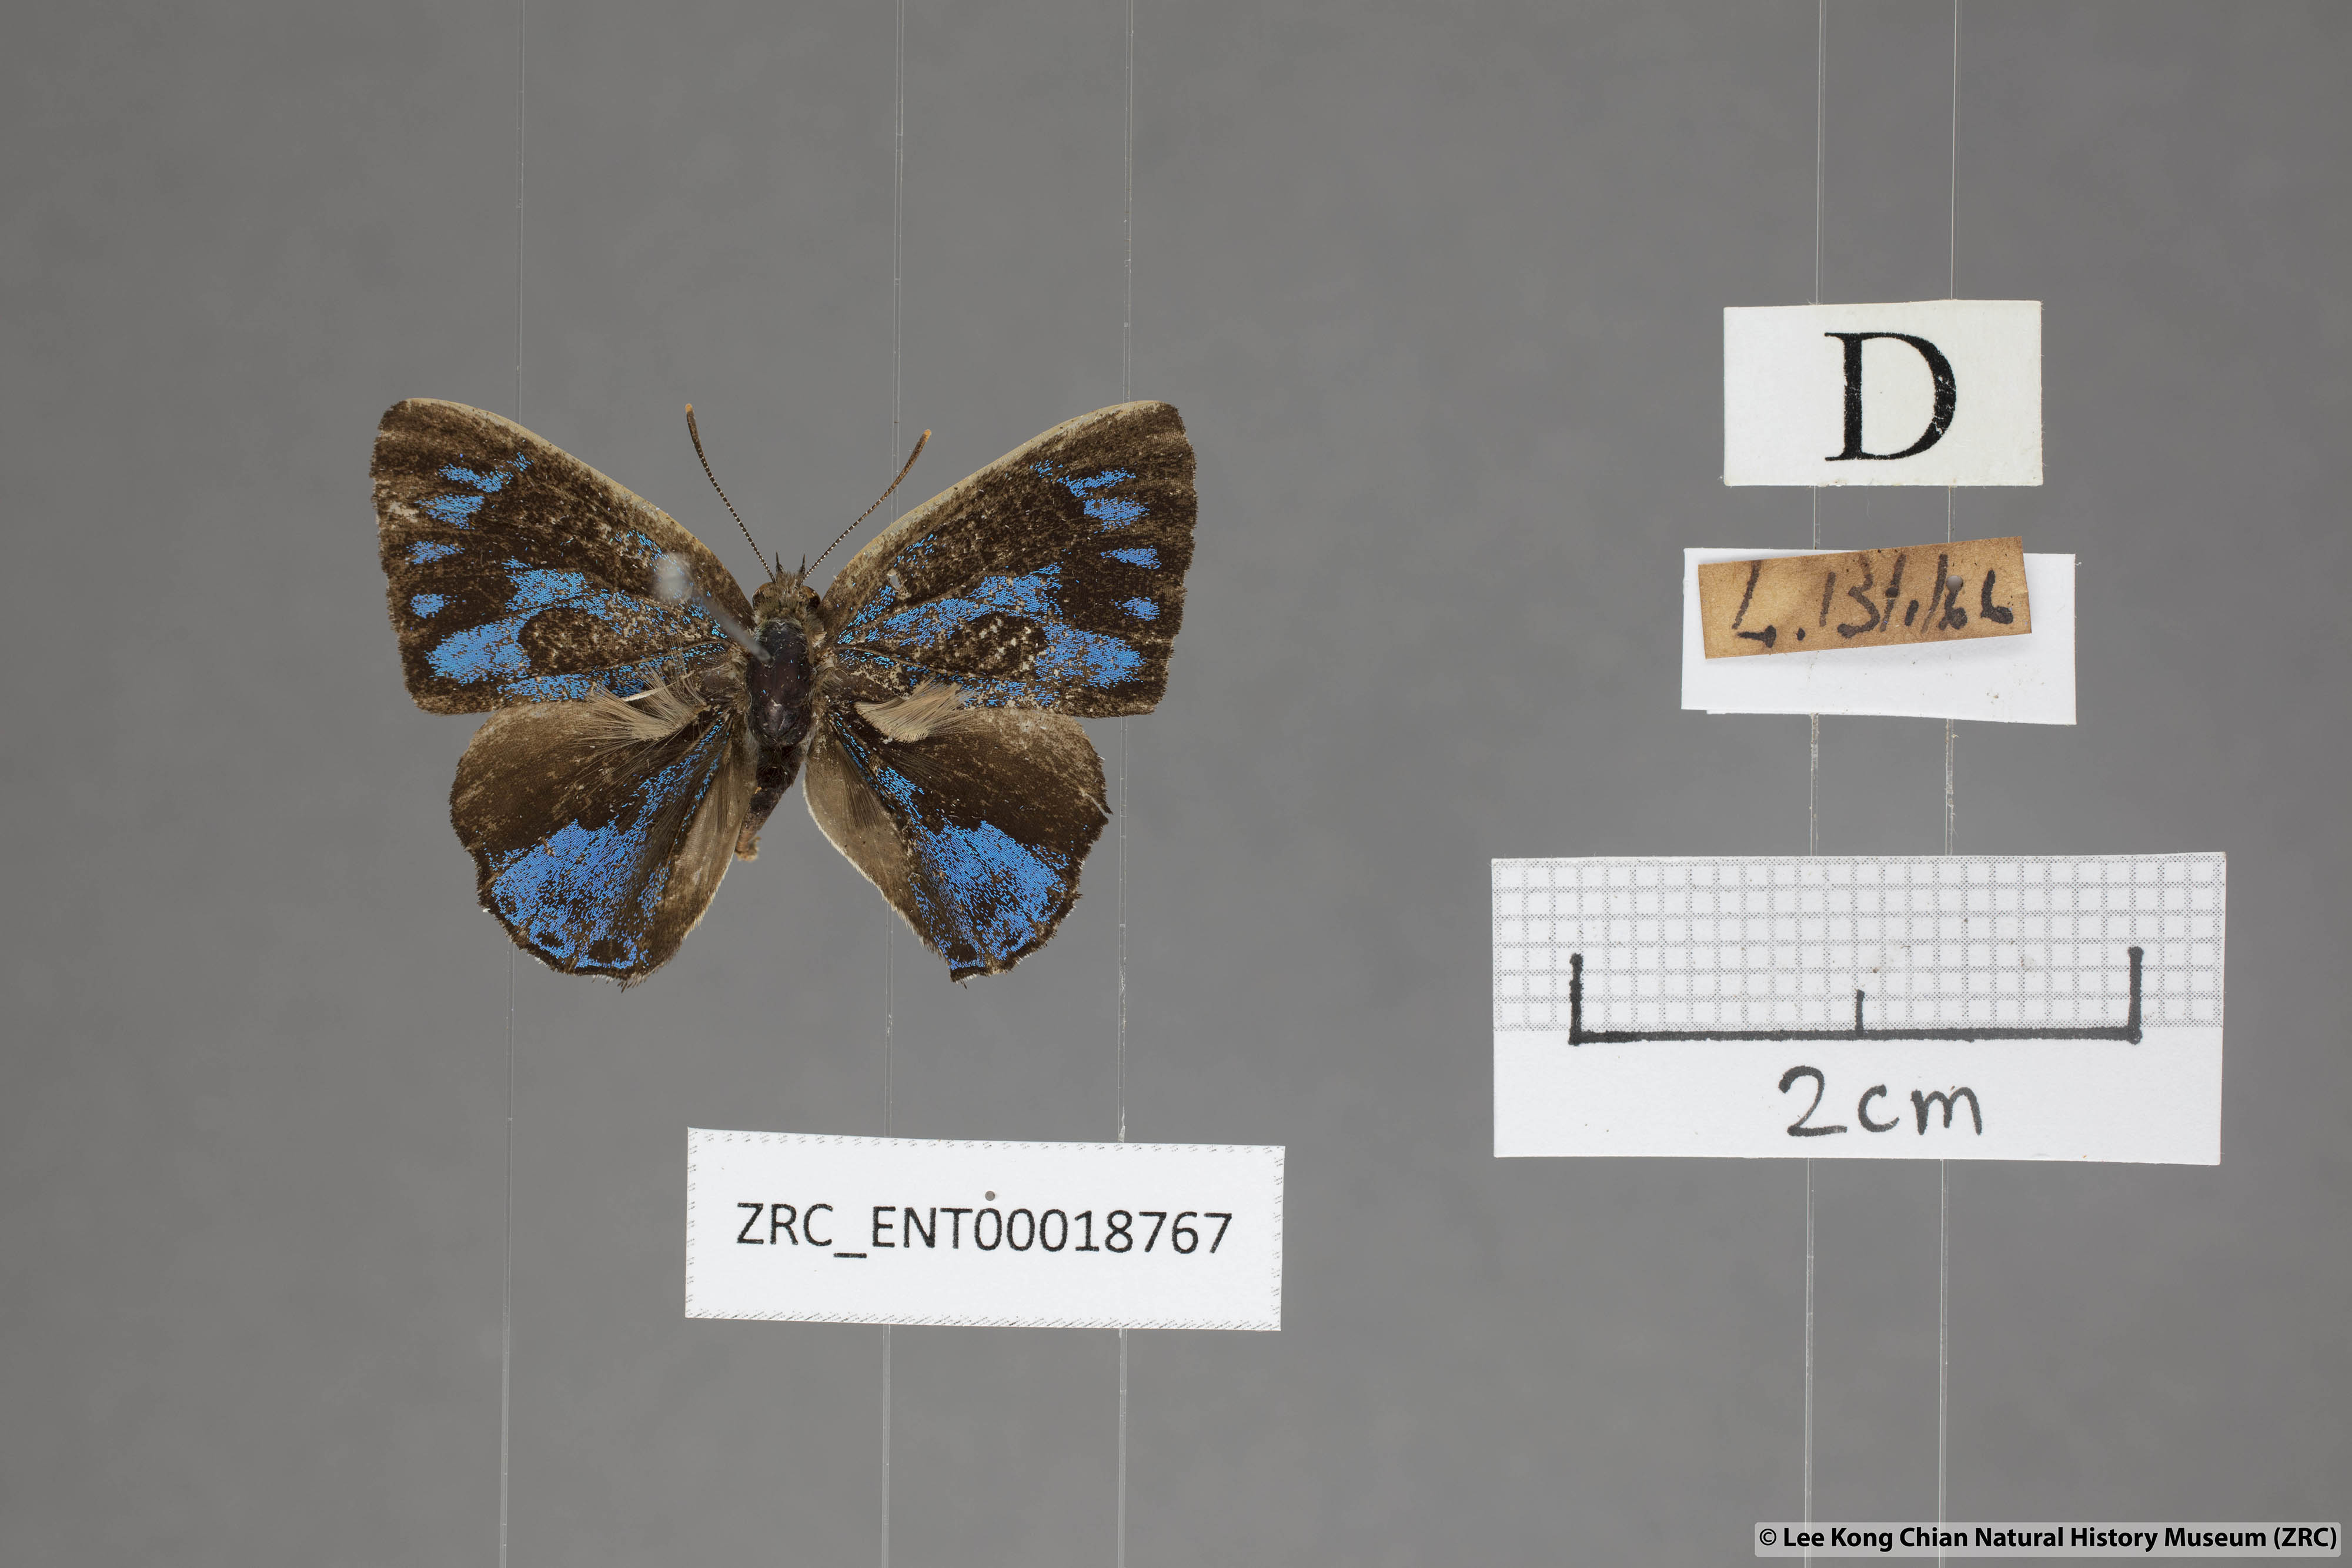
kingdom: Animalia
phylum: Arthropoda
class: Insecta
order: Lepidoptera
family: Lycaenidae
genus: Poritia
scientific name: Poritia erycinoides
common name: Blue gem
